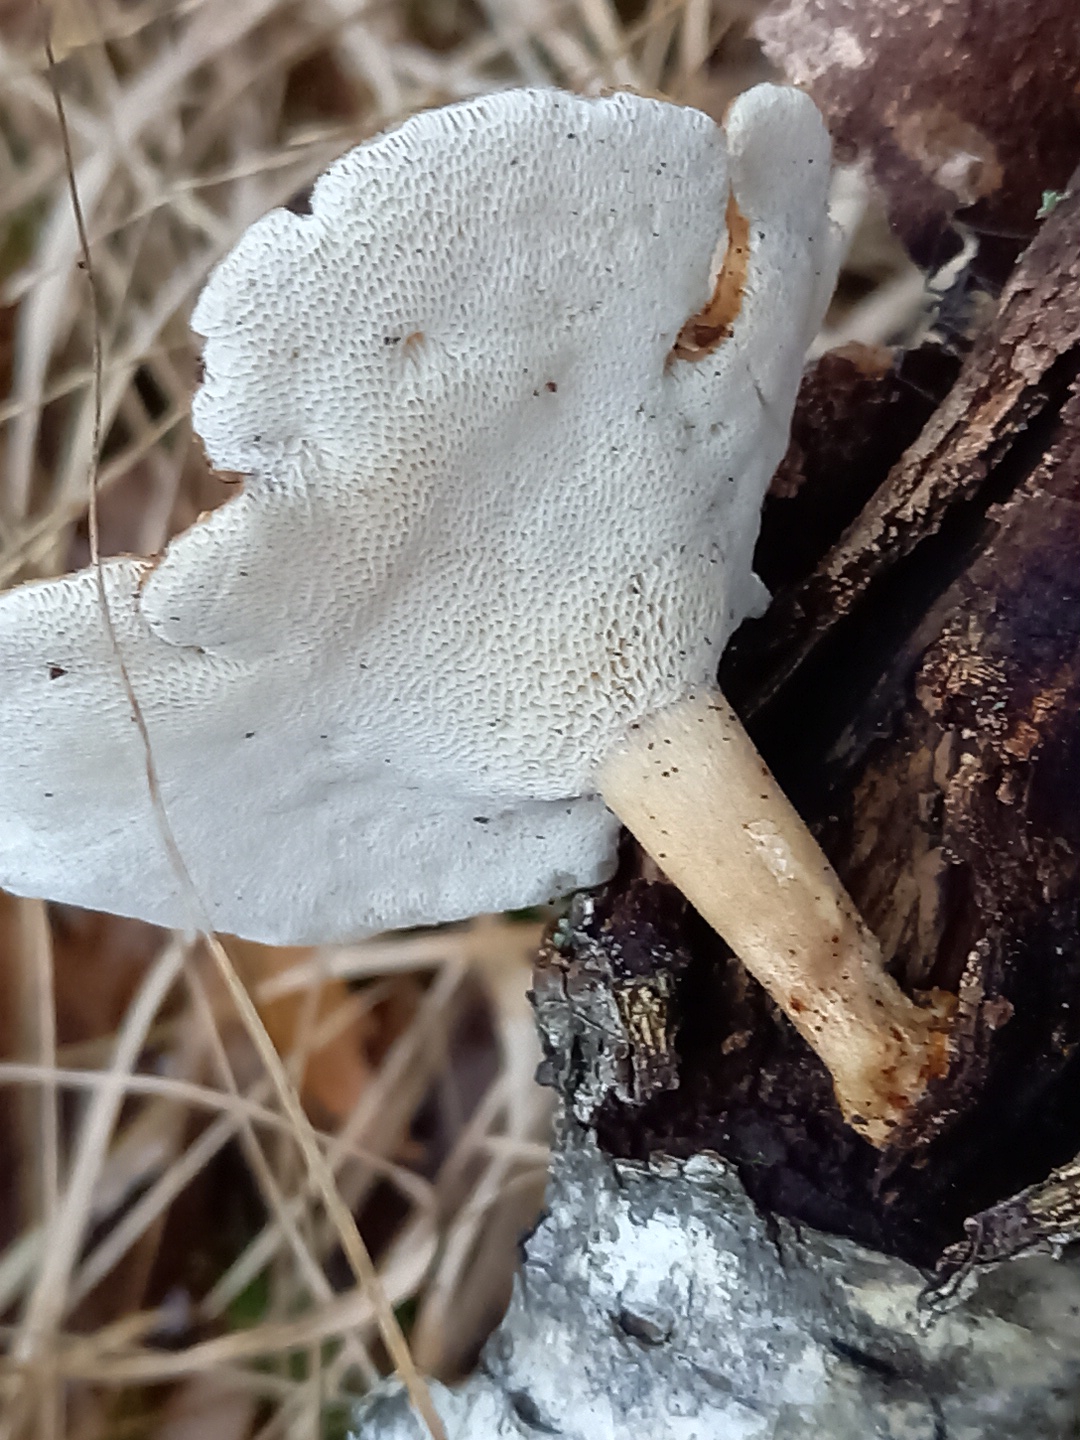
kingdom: Fungi
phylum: Basidiomycota
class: Agaricomycetes
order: Polyporales
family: Polyporaceae
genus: Lentinus
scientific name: Lentinus brumalis
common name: vinter-stilkporesvamp
